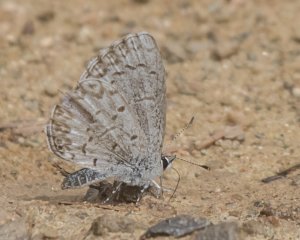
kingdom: Animalia
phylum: Arthropoda
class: Insecta
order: Lepidoptera
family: Lycaenidae
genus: Celastrina
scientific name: Celastrina
